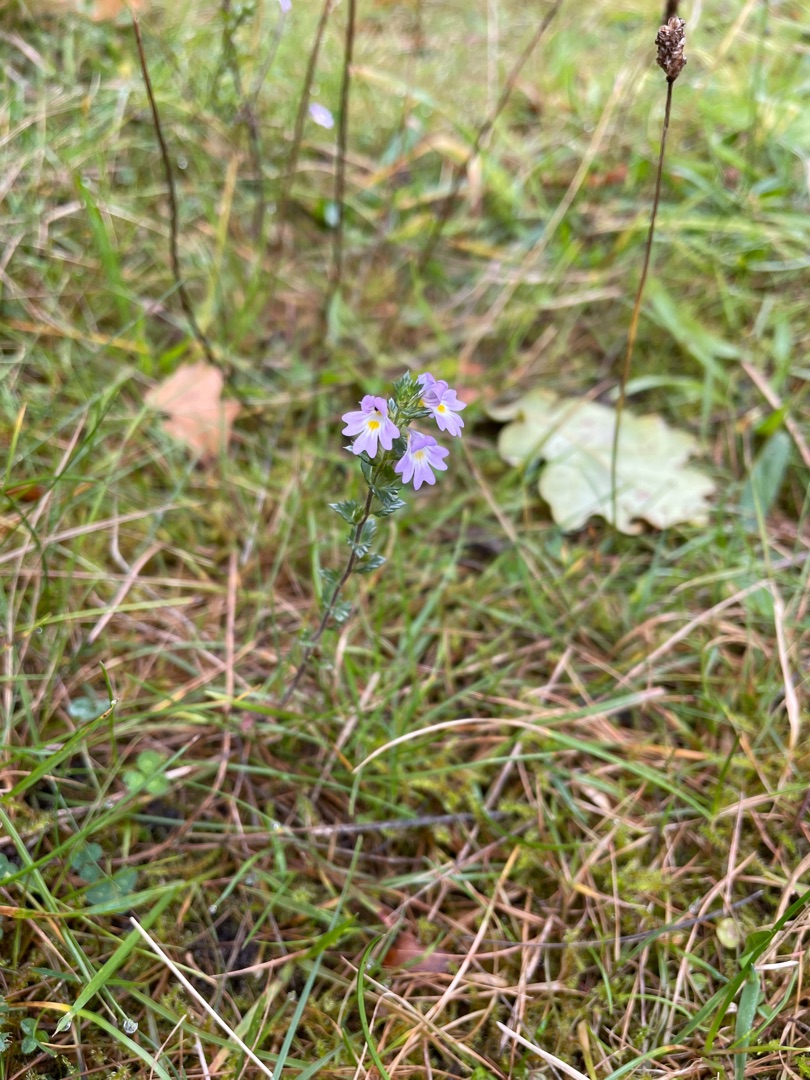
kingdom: Plantae
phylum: Tracheophyta
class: Magnoliopsida
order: Lamiales
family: Orobanchaceae
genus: Euphrasia
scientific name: Euphrasia nemorosa
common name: Kort øjentrøst
